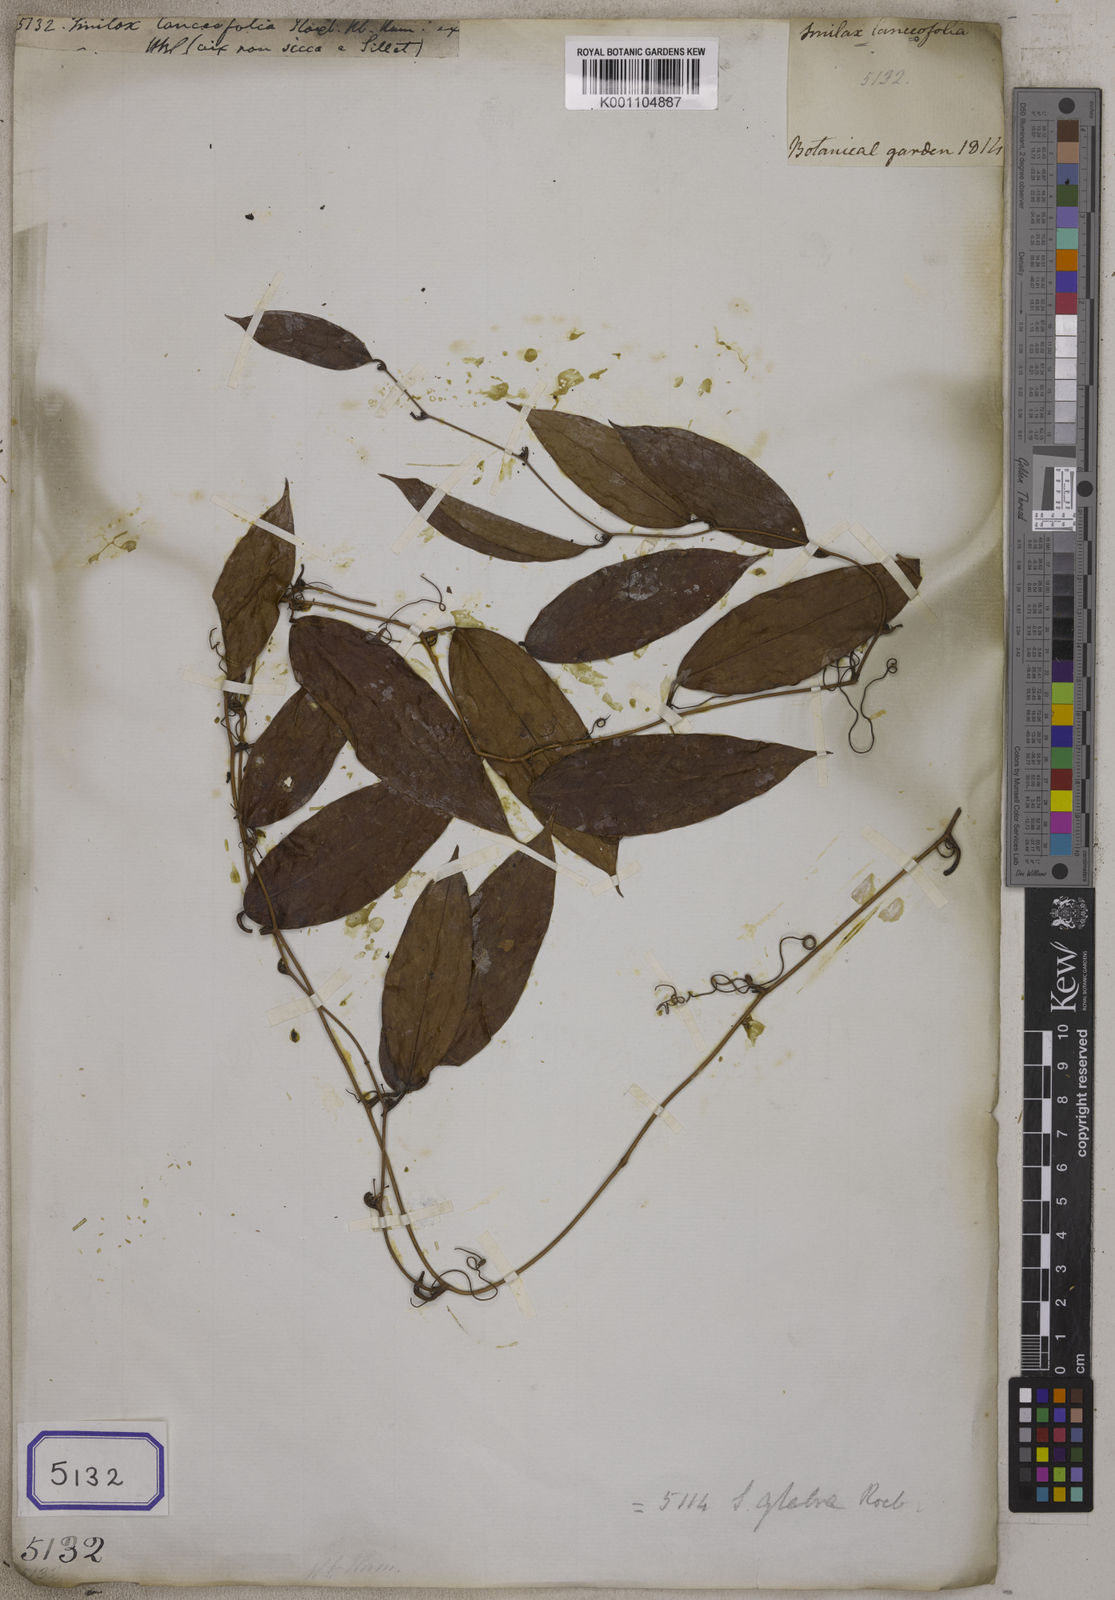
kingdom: Plantae
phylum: Tracheophyta
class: Liliopsida
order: Liliales
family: Smilacaceae
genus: Smilax
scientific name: Smilax lanceifolia
